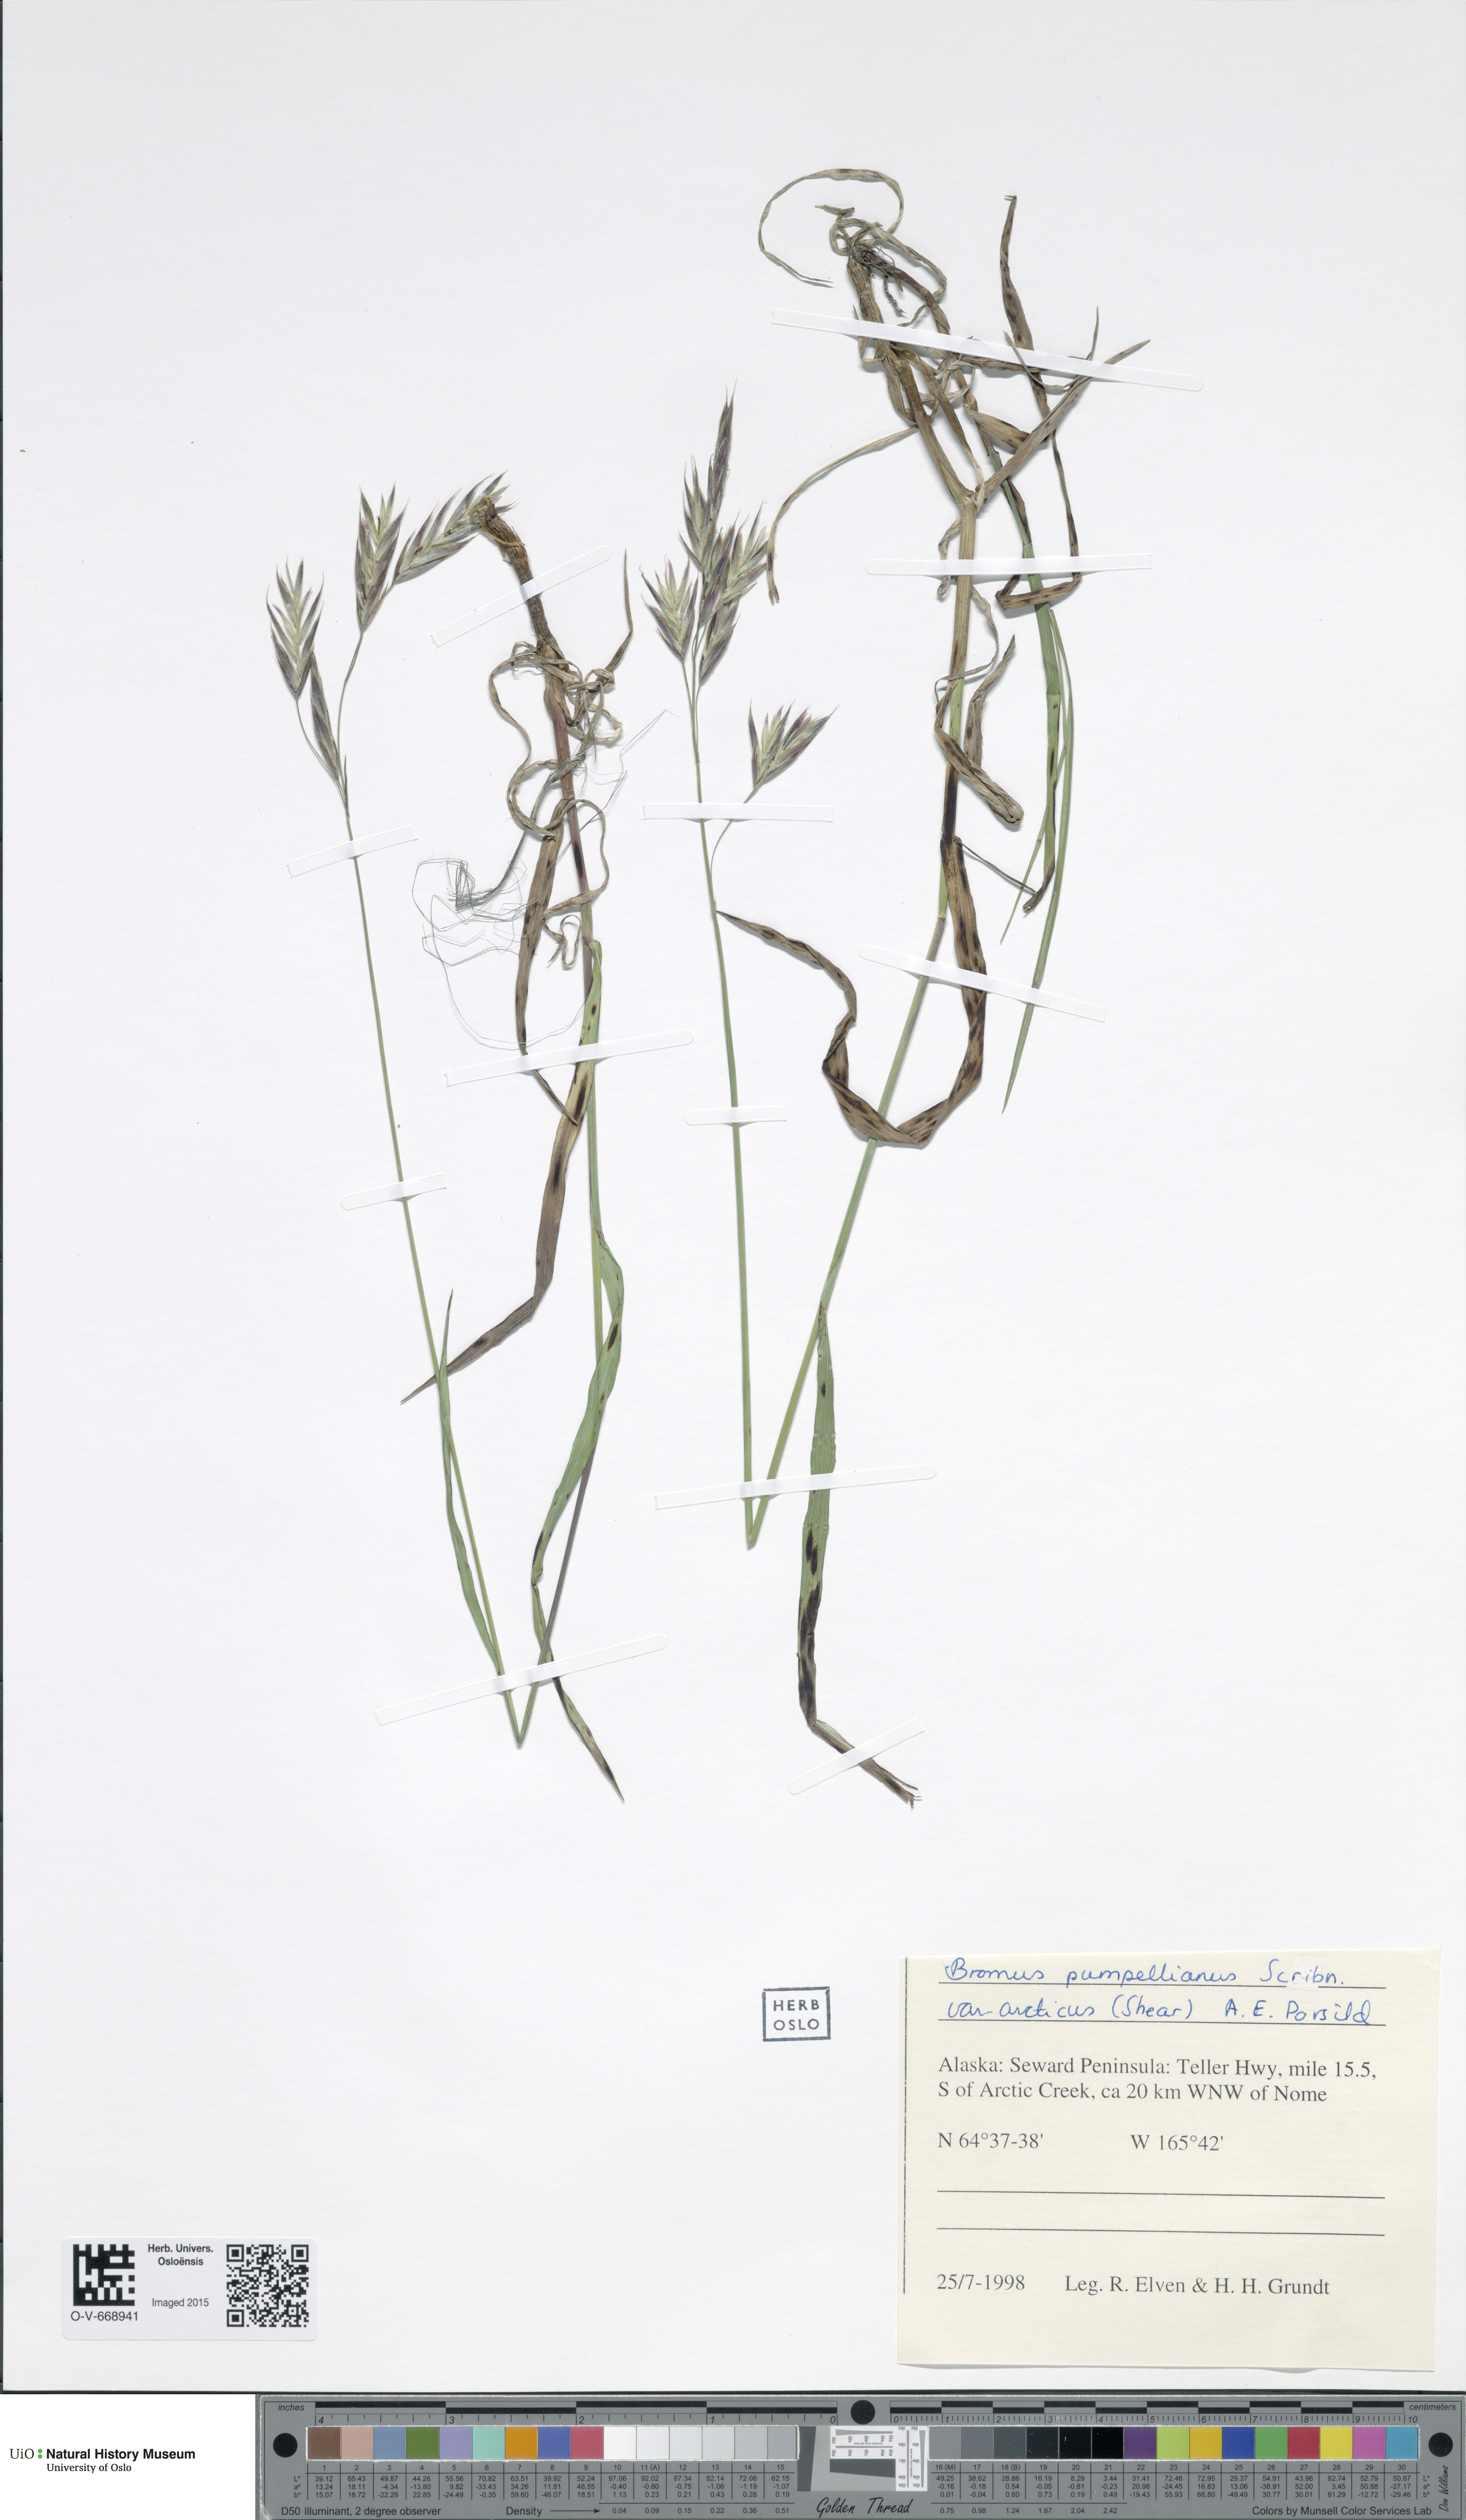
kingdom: Plantae
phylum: Tracheophyta
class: Liliopsida
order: Poales
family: Poaceae
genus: Bromus
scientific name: Bromus pumpellianus
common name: Pumpelly's brome
